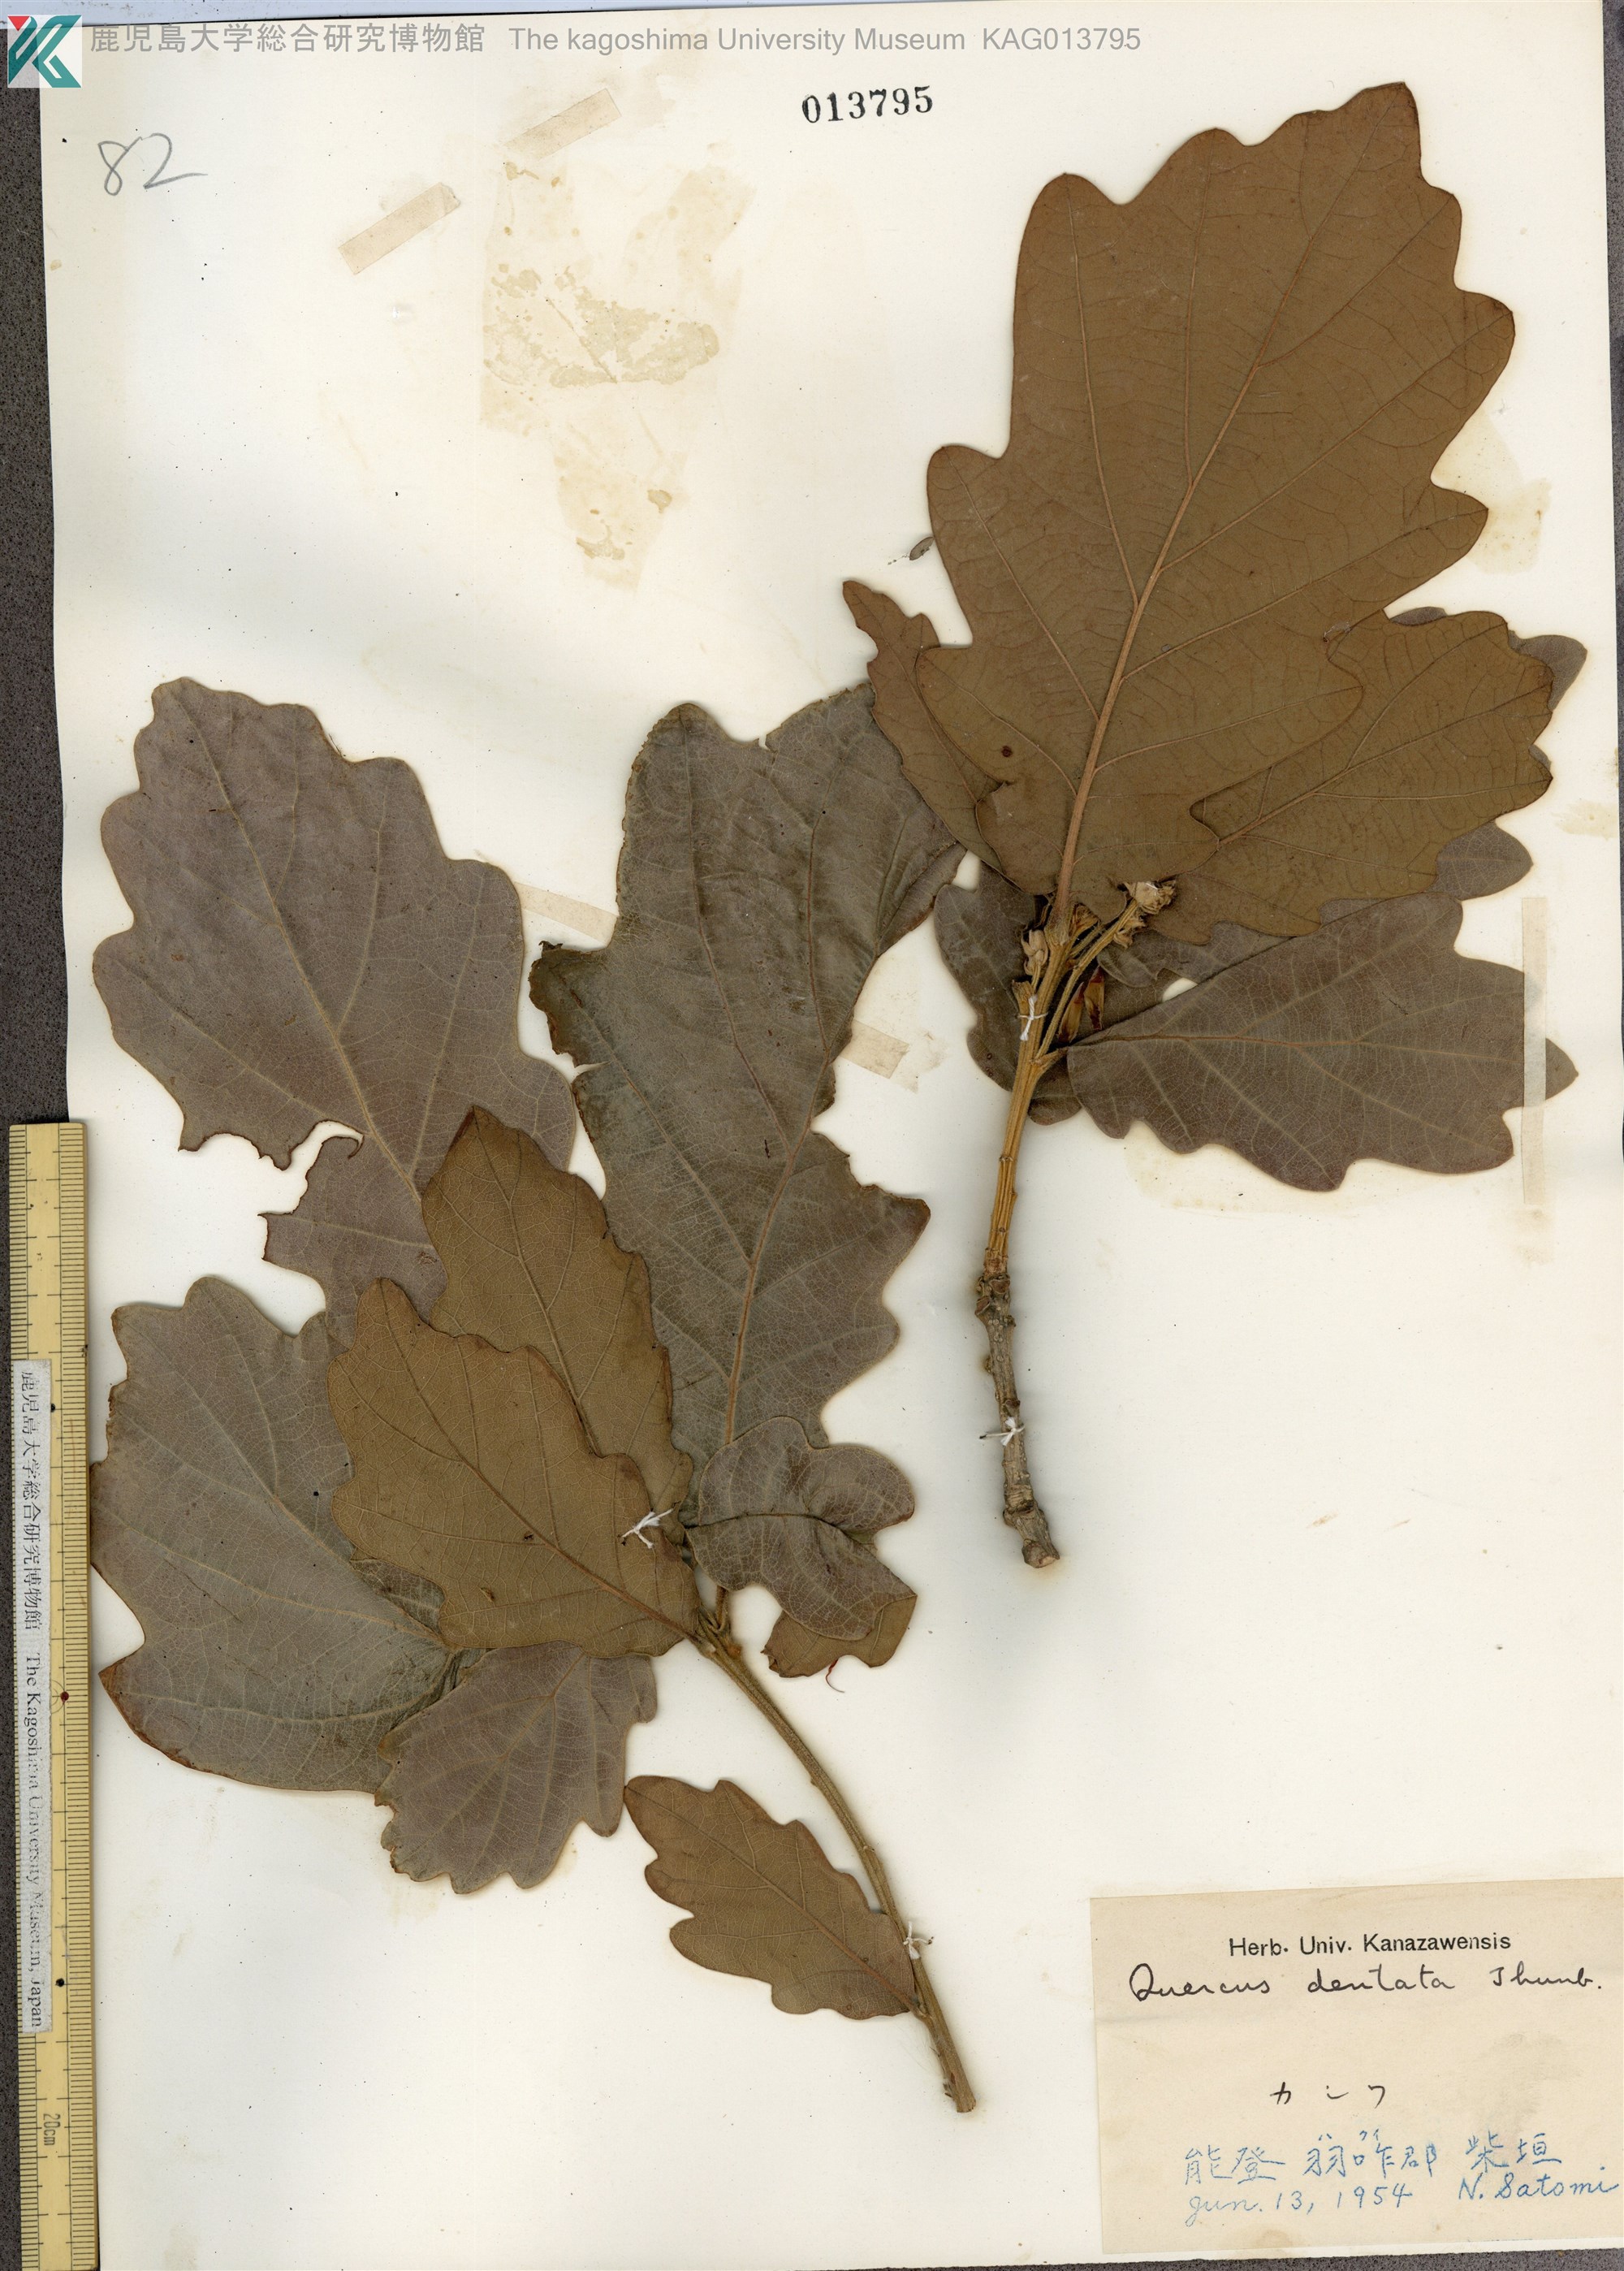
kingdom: Plantae
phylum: Tracheophyta
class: Magnoliopsida
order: Fagales
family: Fagaceae
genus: Quercus
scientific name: Quercus dentata
